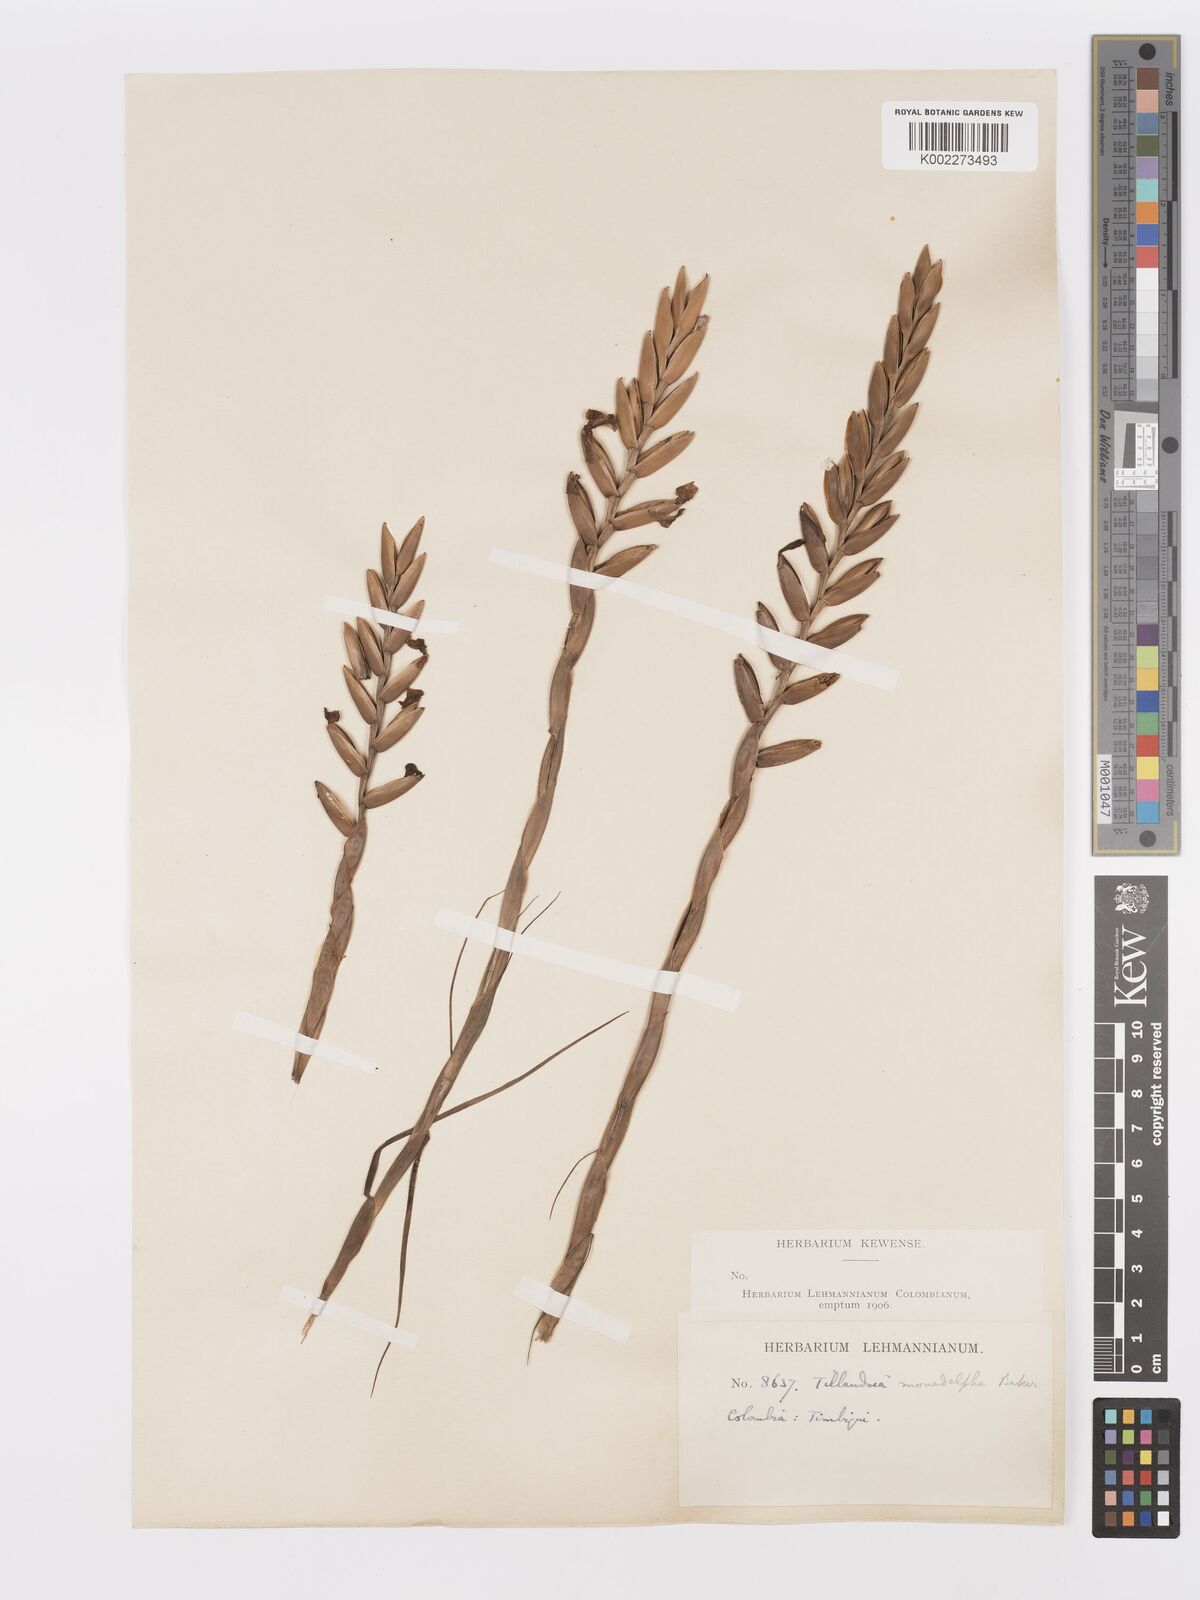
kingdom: Plantae
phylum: Tracheophyta
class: Liliopsida
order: Poales
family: Bromeliaceae
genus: Lemeltonia
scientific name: Lemeltonia monadelpha
